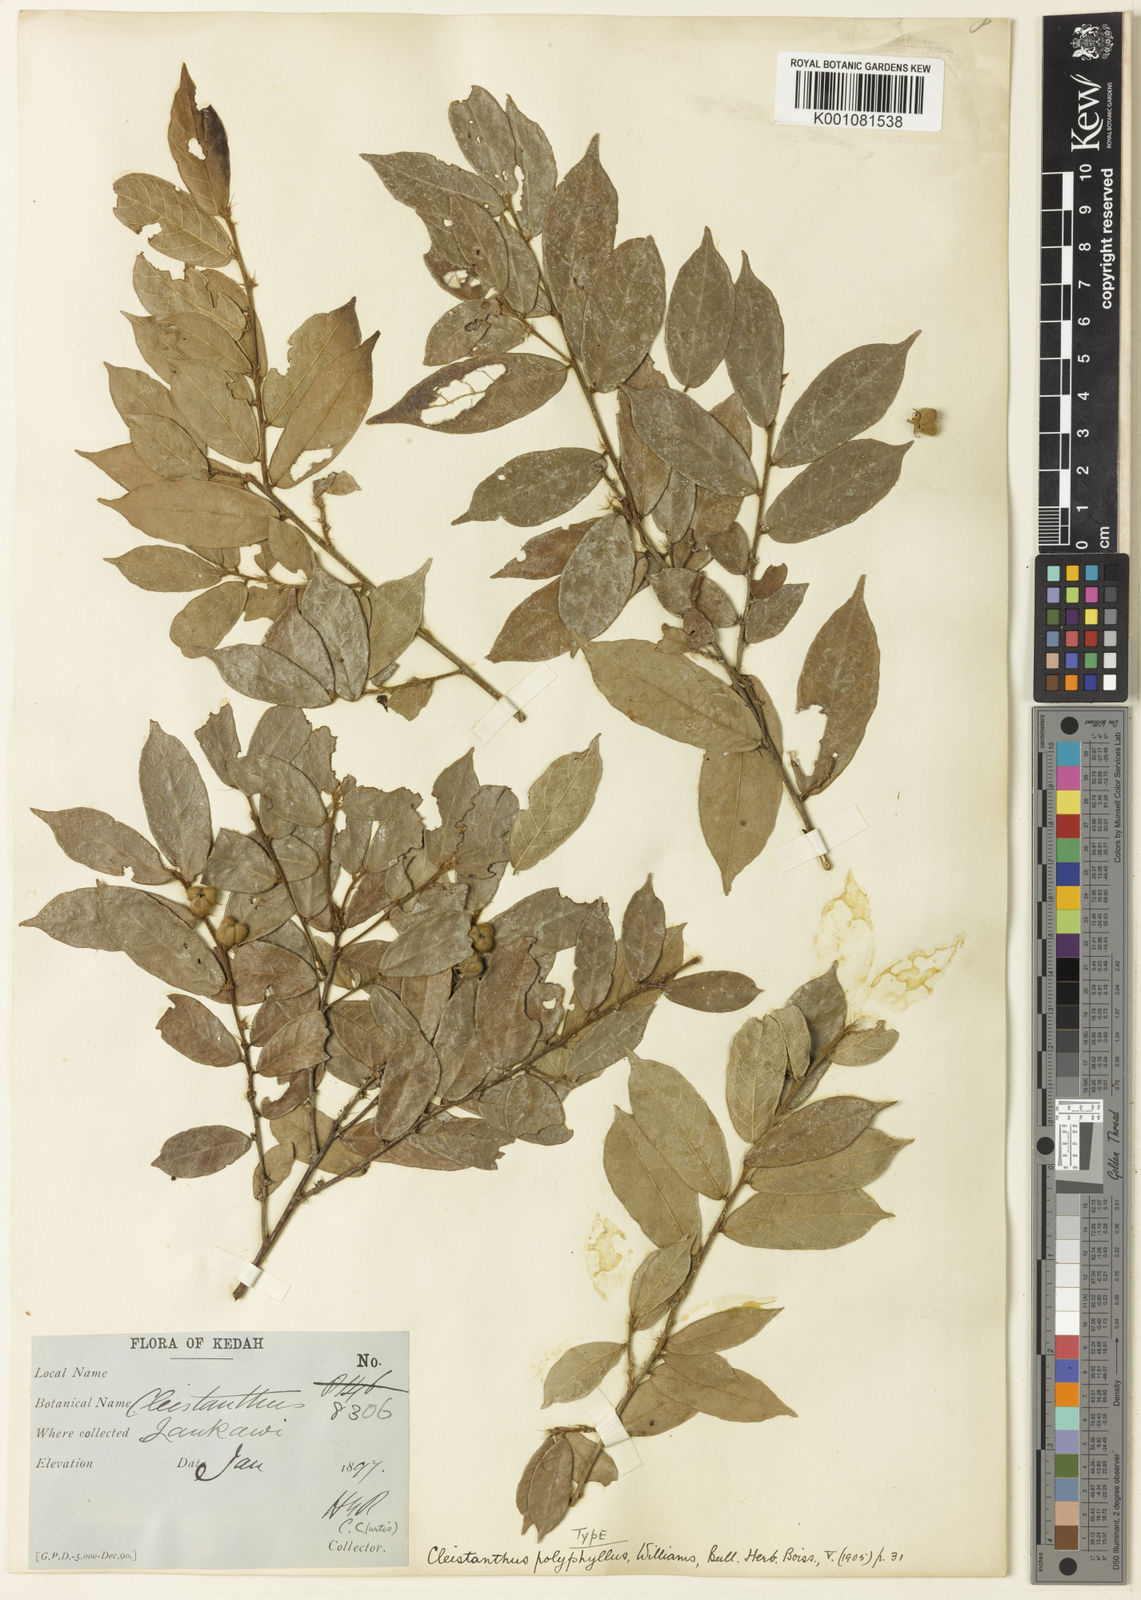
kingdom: Plantae
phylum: Tracheophyta
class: Magnoliopsida
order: Malpighiales
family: Phyllanthaceae
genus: Cleistanthus
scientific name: Cleistanthus polyphyllus
